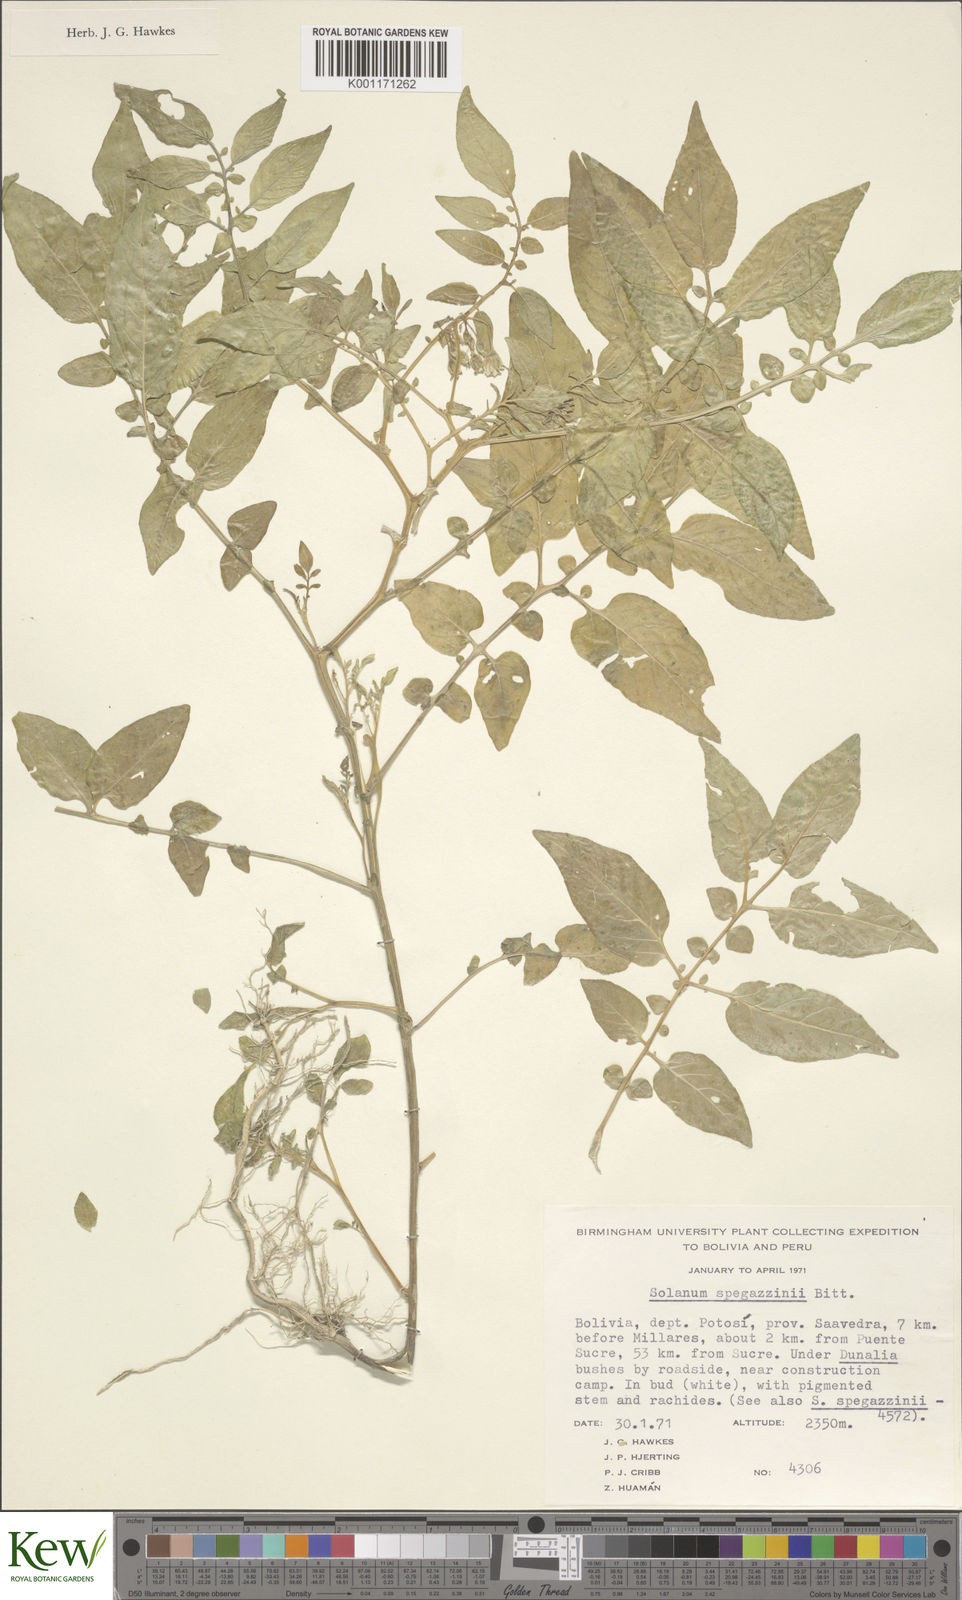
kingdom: Plantae
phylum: Tracheophyta
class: Magnoliopsida
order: Solanales
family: Solanaceae
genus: Solanum
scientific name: Solanum brevicaule
